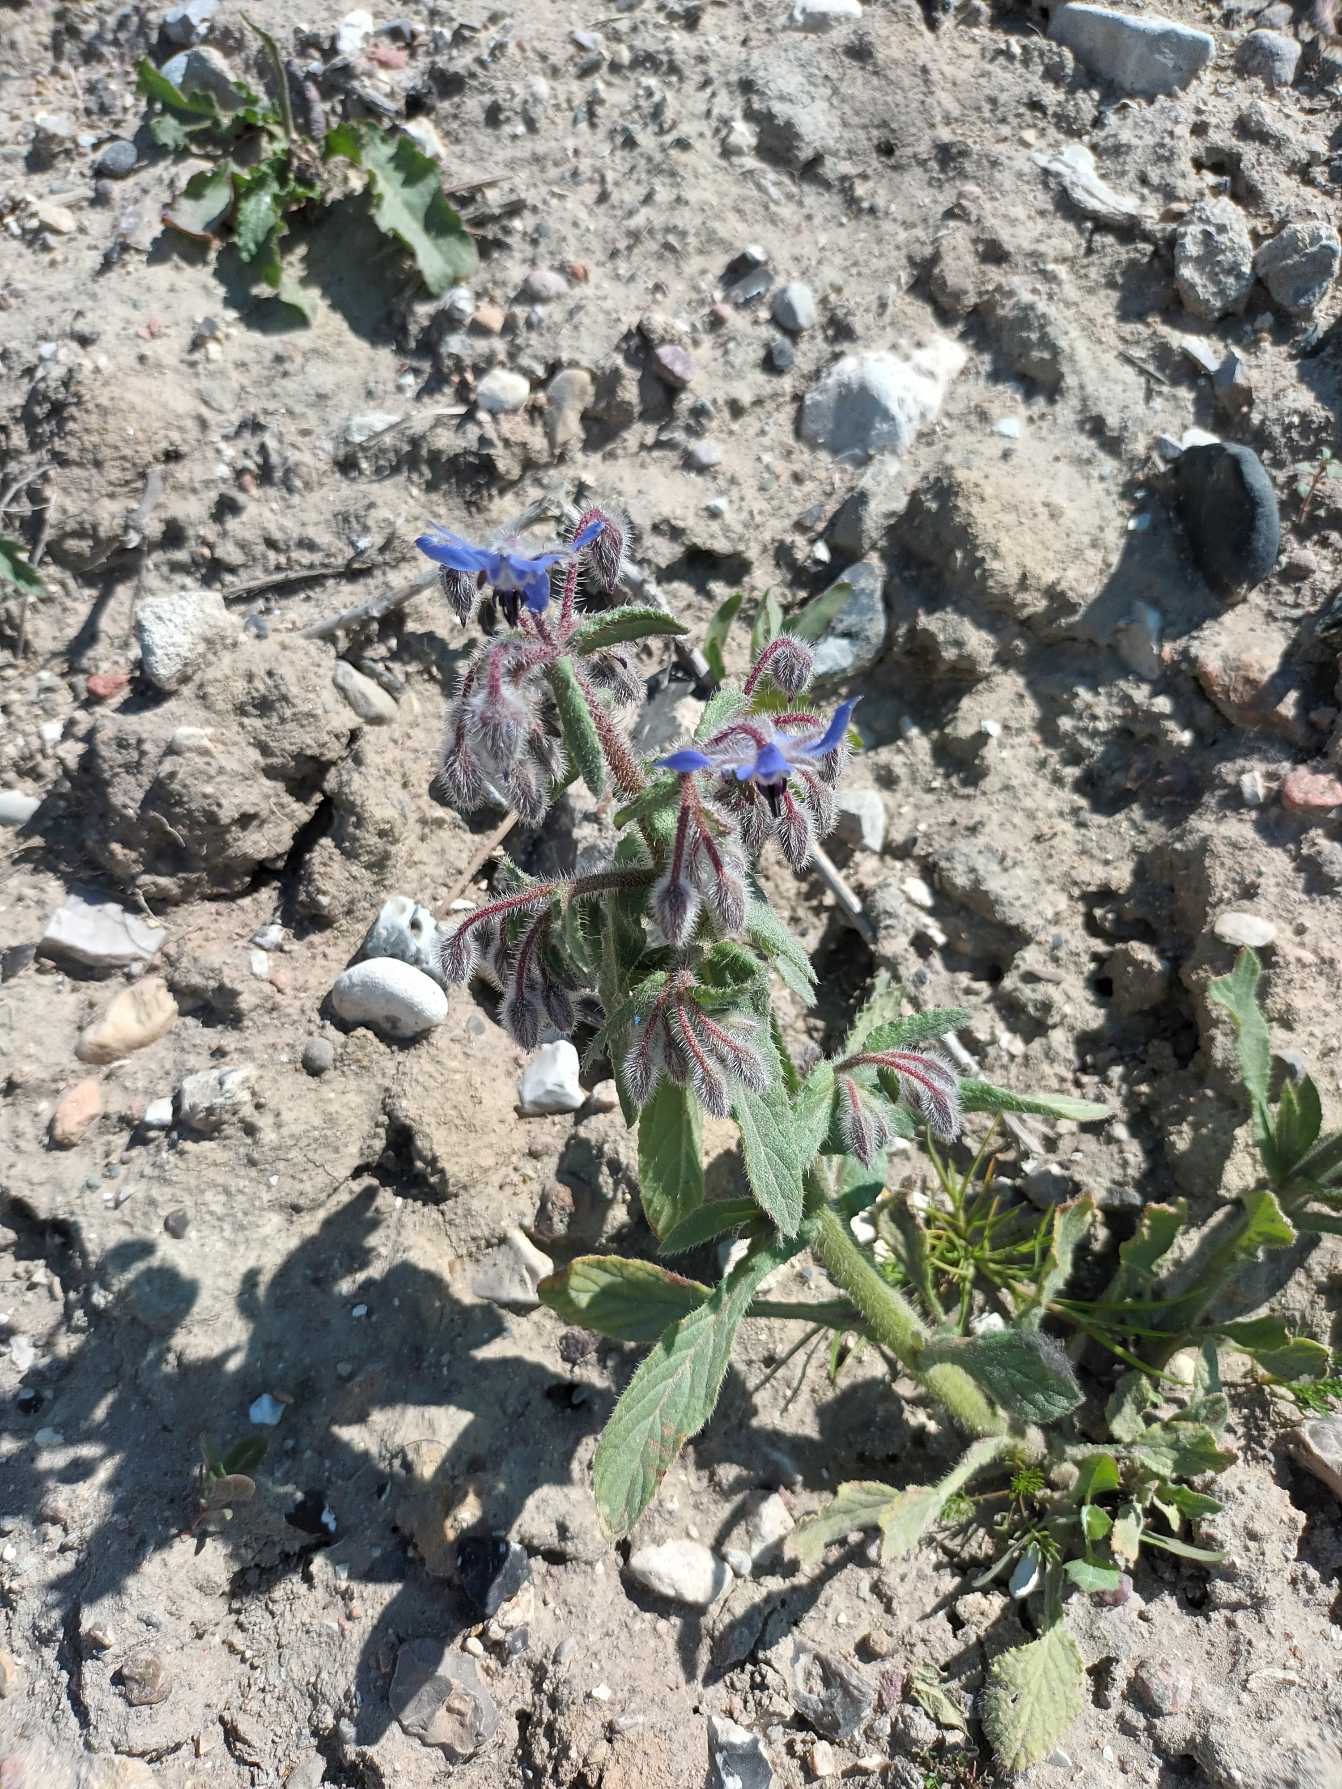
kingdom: Plantae
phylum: Tracheophyta
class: Magnoliopsida
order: Boraginales
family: Boraginaceae
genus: Borago
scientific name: Borago officinalis
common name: Hjulkrone
